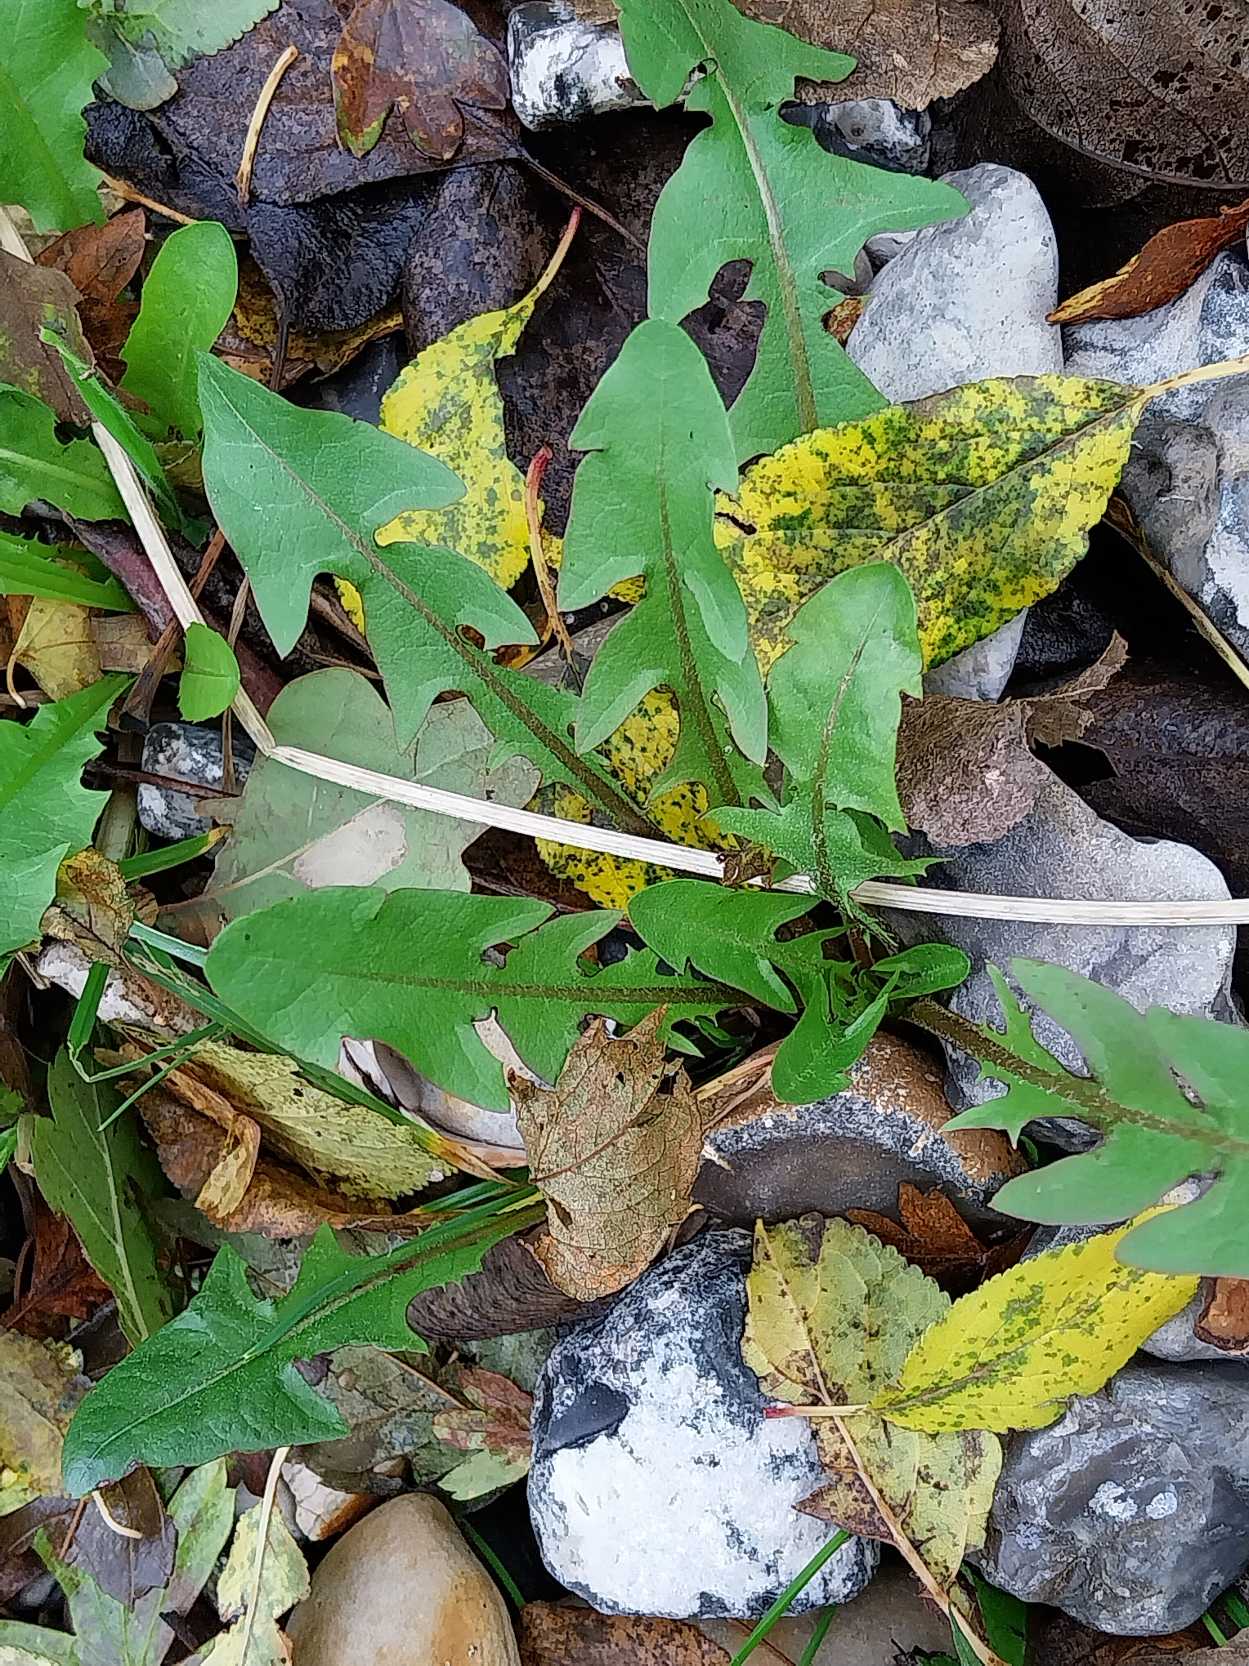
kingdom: Plantae
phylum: Tracheophyta
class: Magnoliopsida
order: Asterales
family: Asteraceae
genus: Taraxacum
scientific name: Taraxacum
